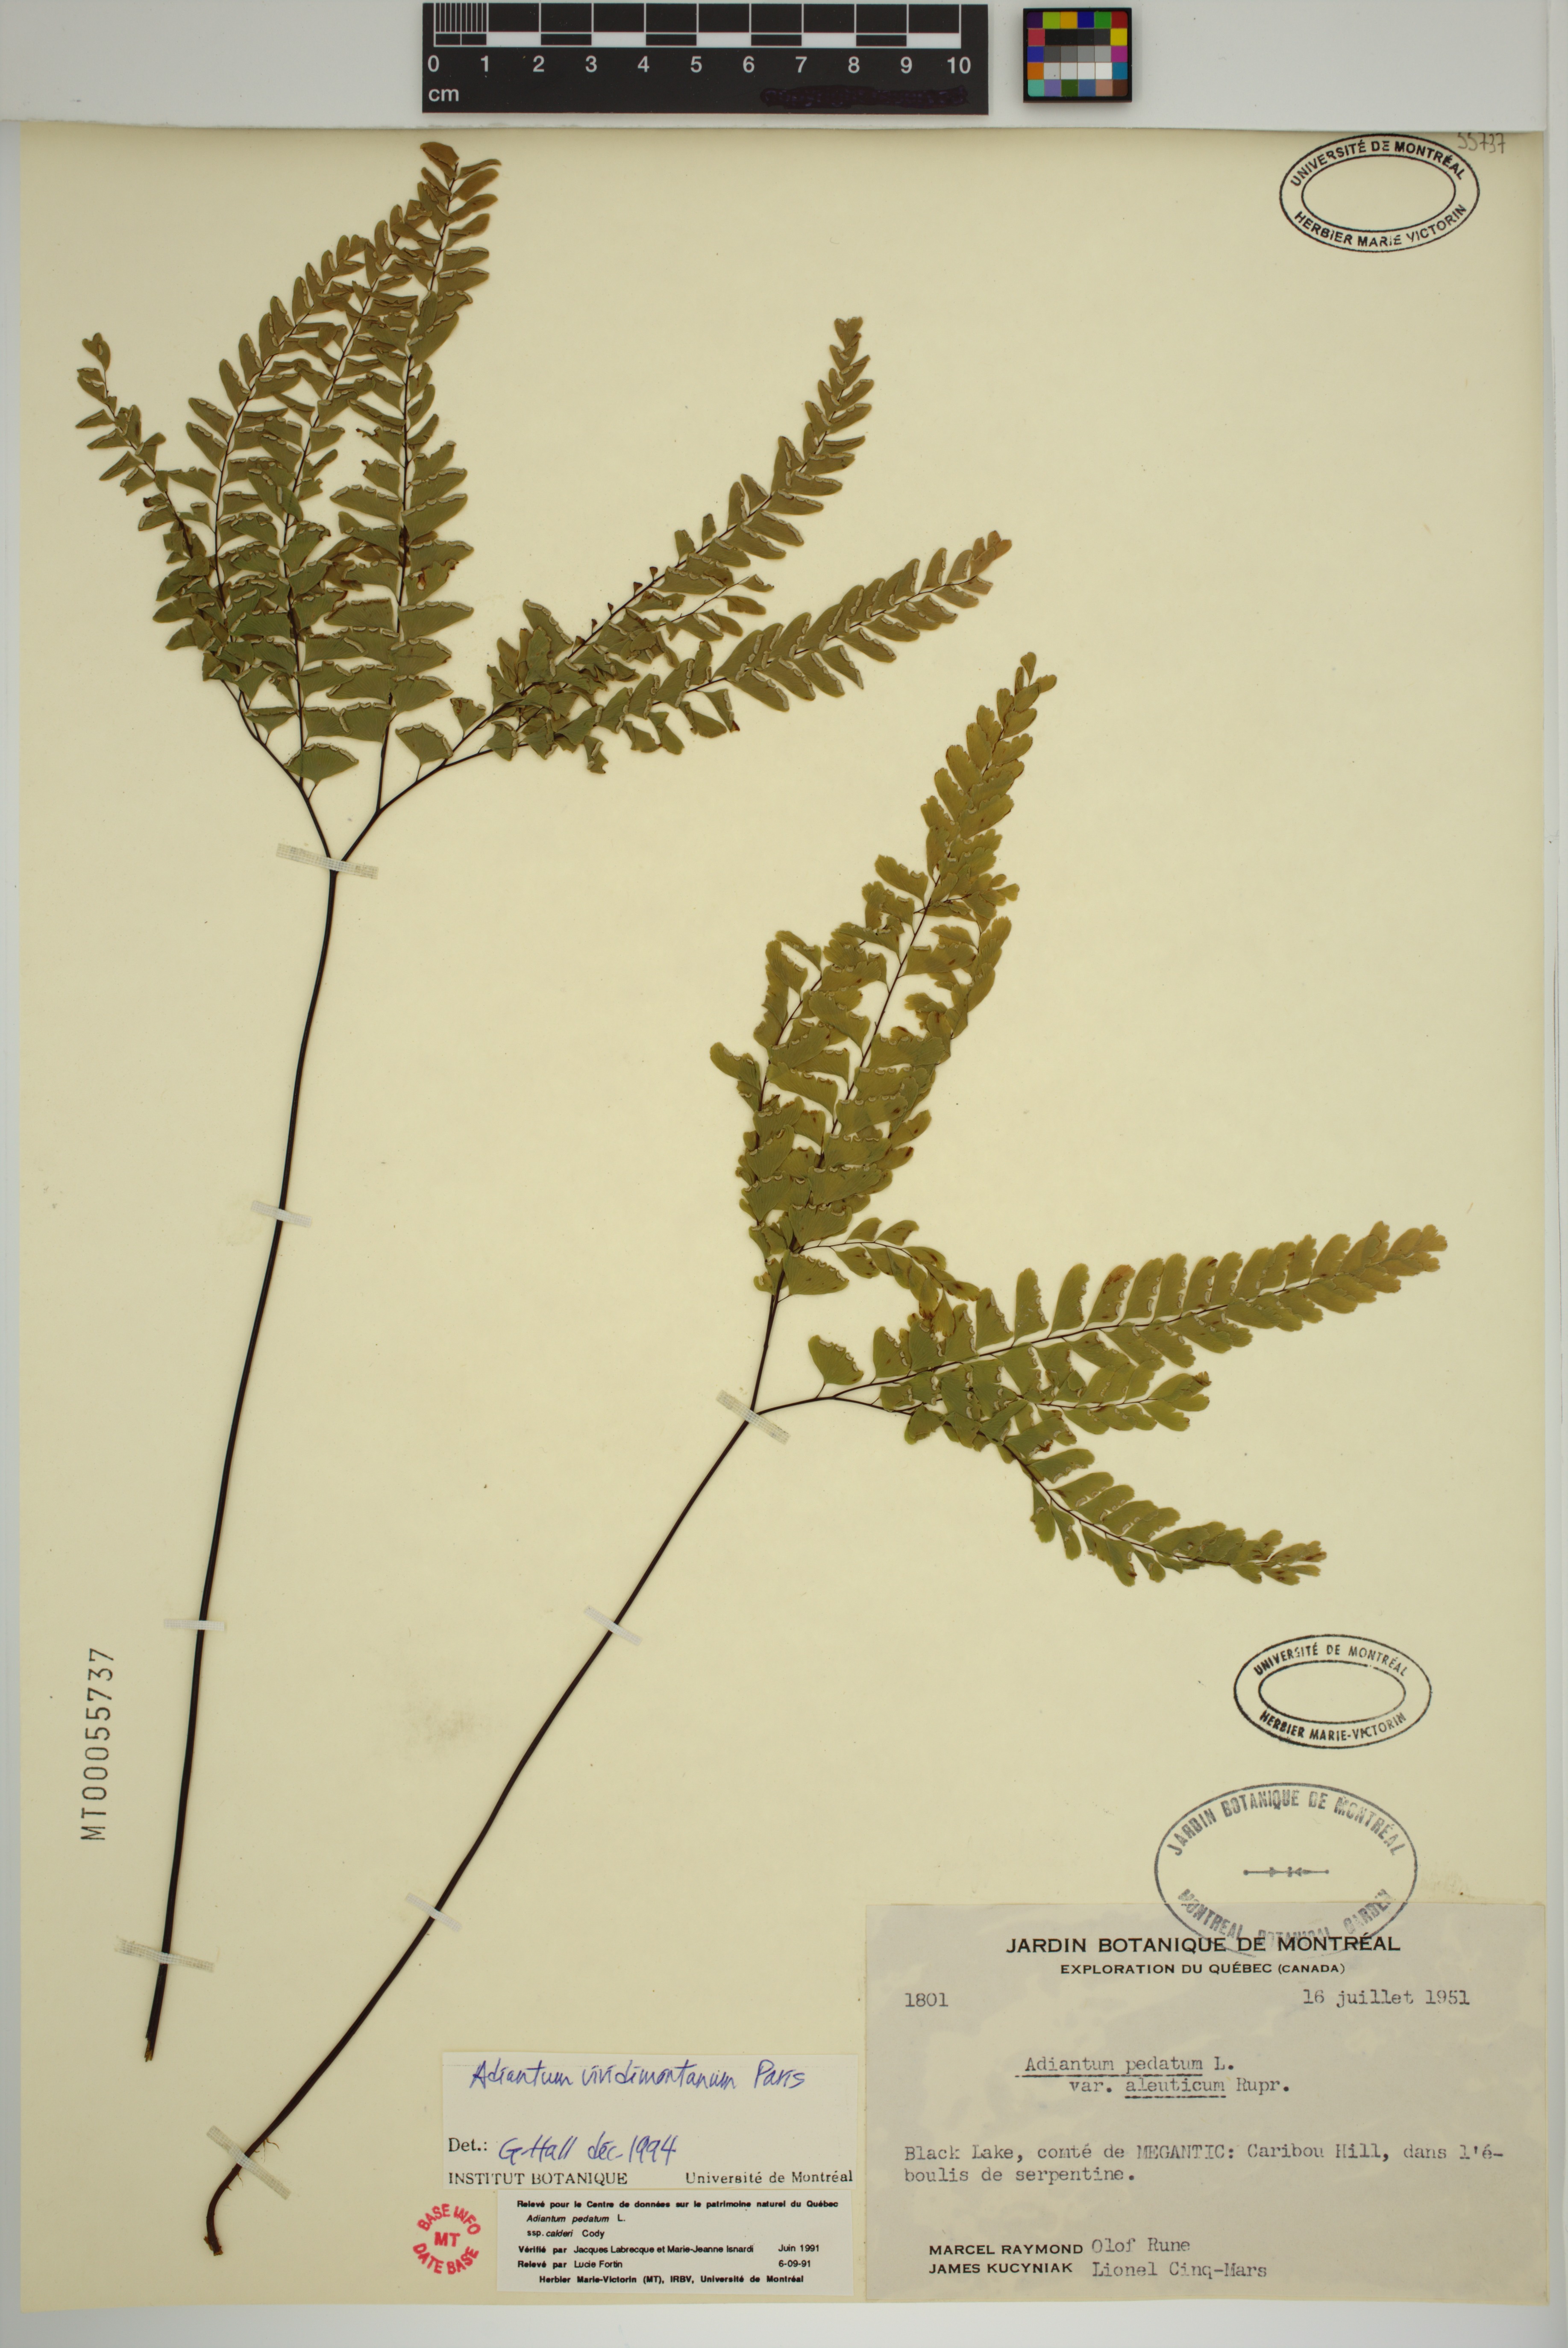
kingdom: Plantae
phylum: Tracheophyta
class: Polypodiopsida
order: Polypodiales
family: Pteridaceae
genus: Adiantum
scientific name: Adiantum viridimontanum
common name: Green mountain maidenhair
